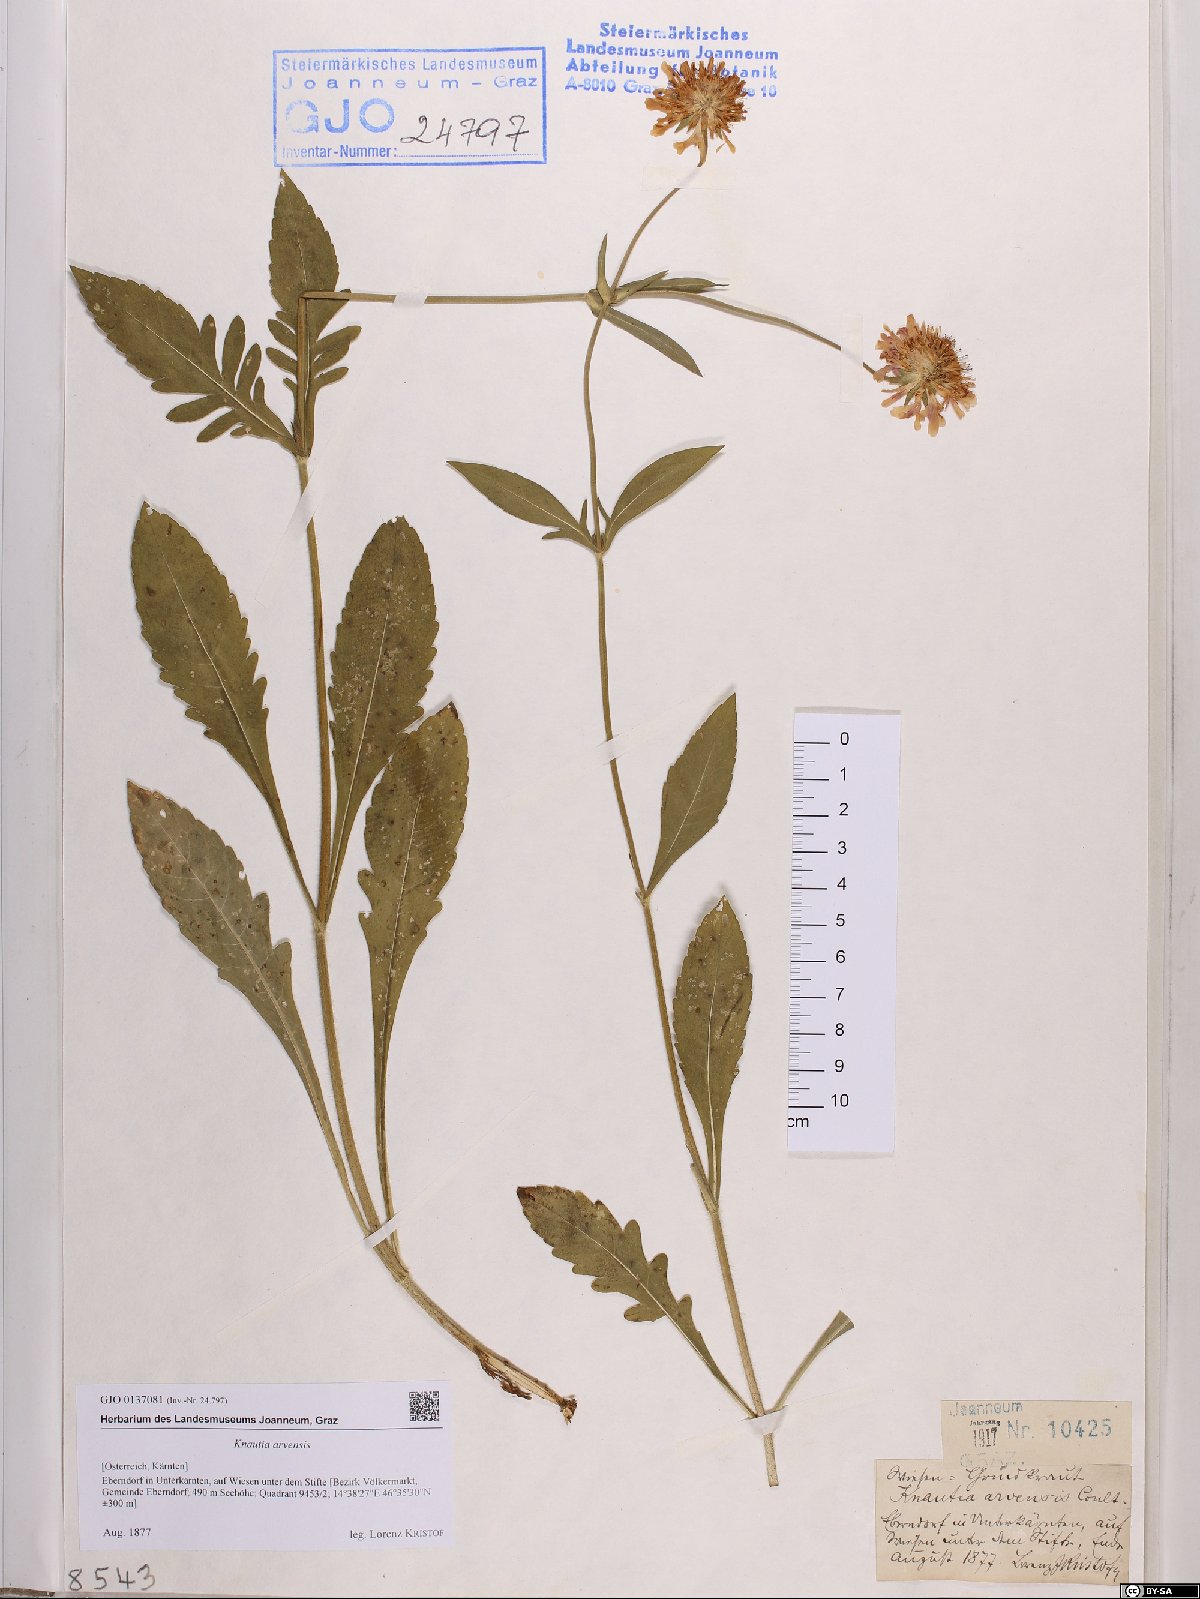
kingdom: Plantae
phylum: Tracheophyta
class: Magnoliopsida
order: Dipsacales
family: Caprifoliaceae
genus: Knautia
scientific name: Knautia arvensis
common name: Field scabiosa
